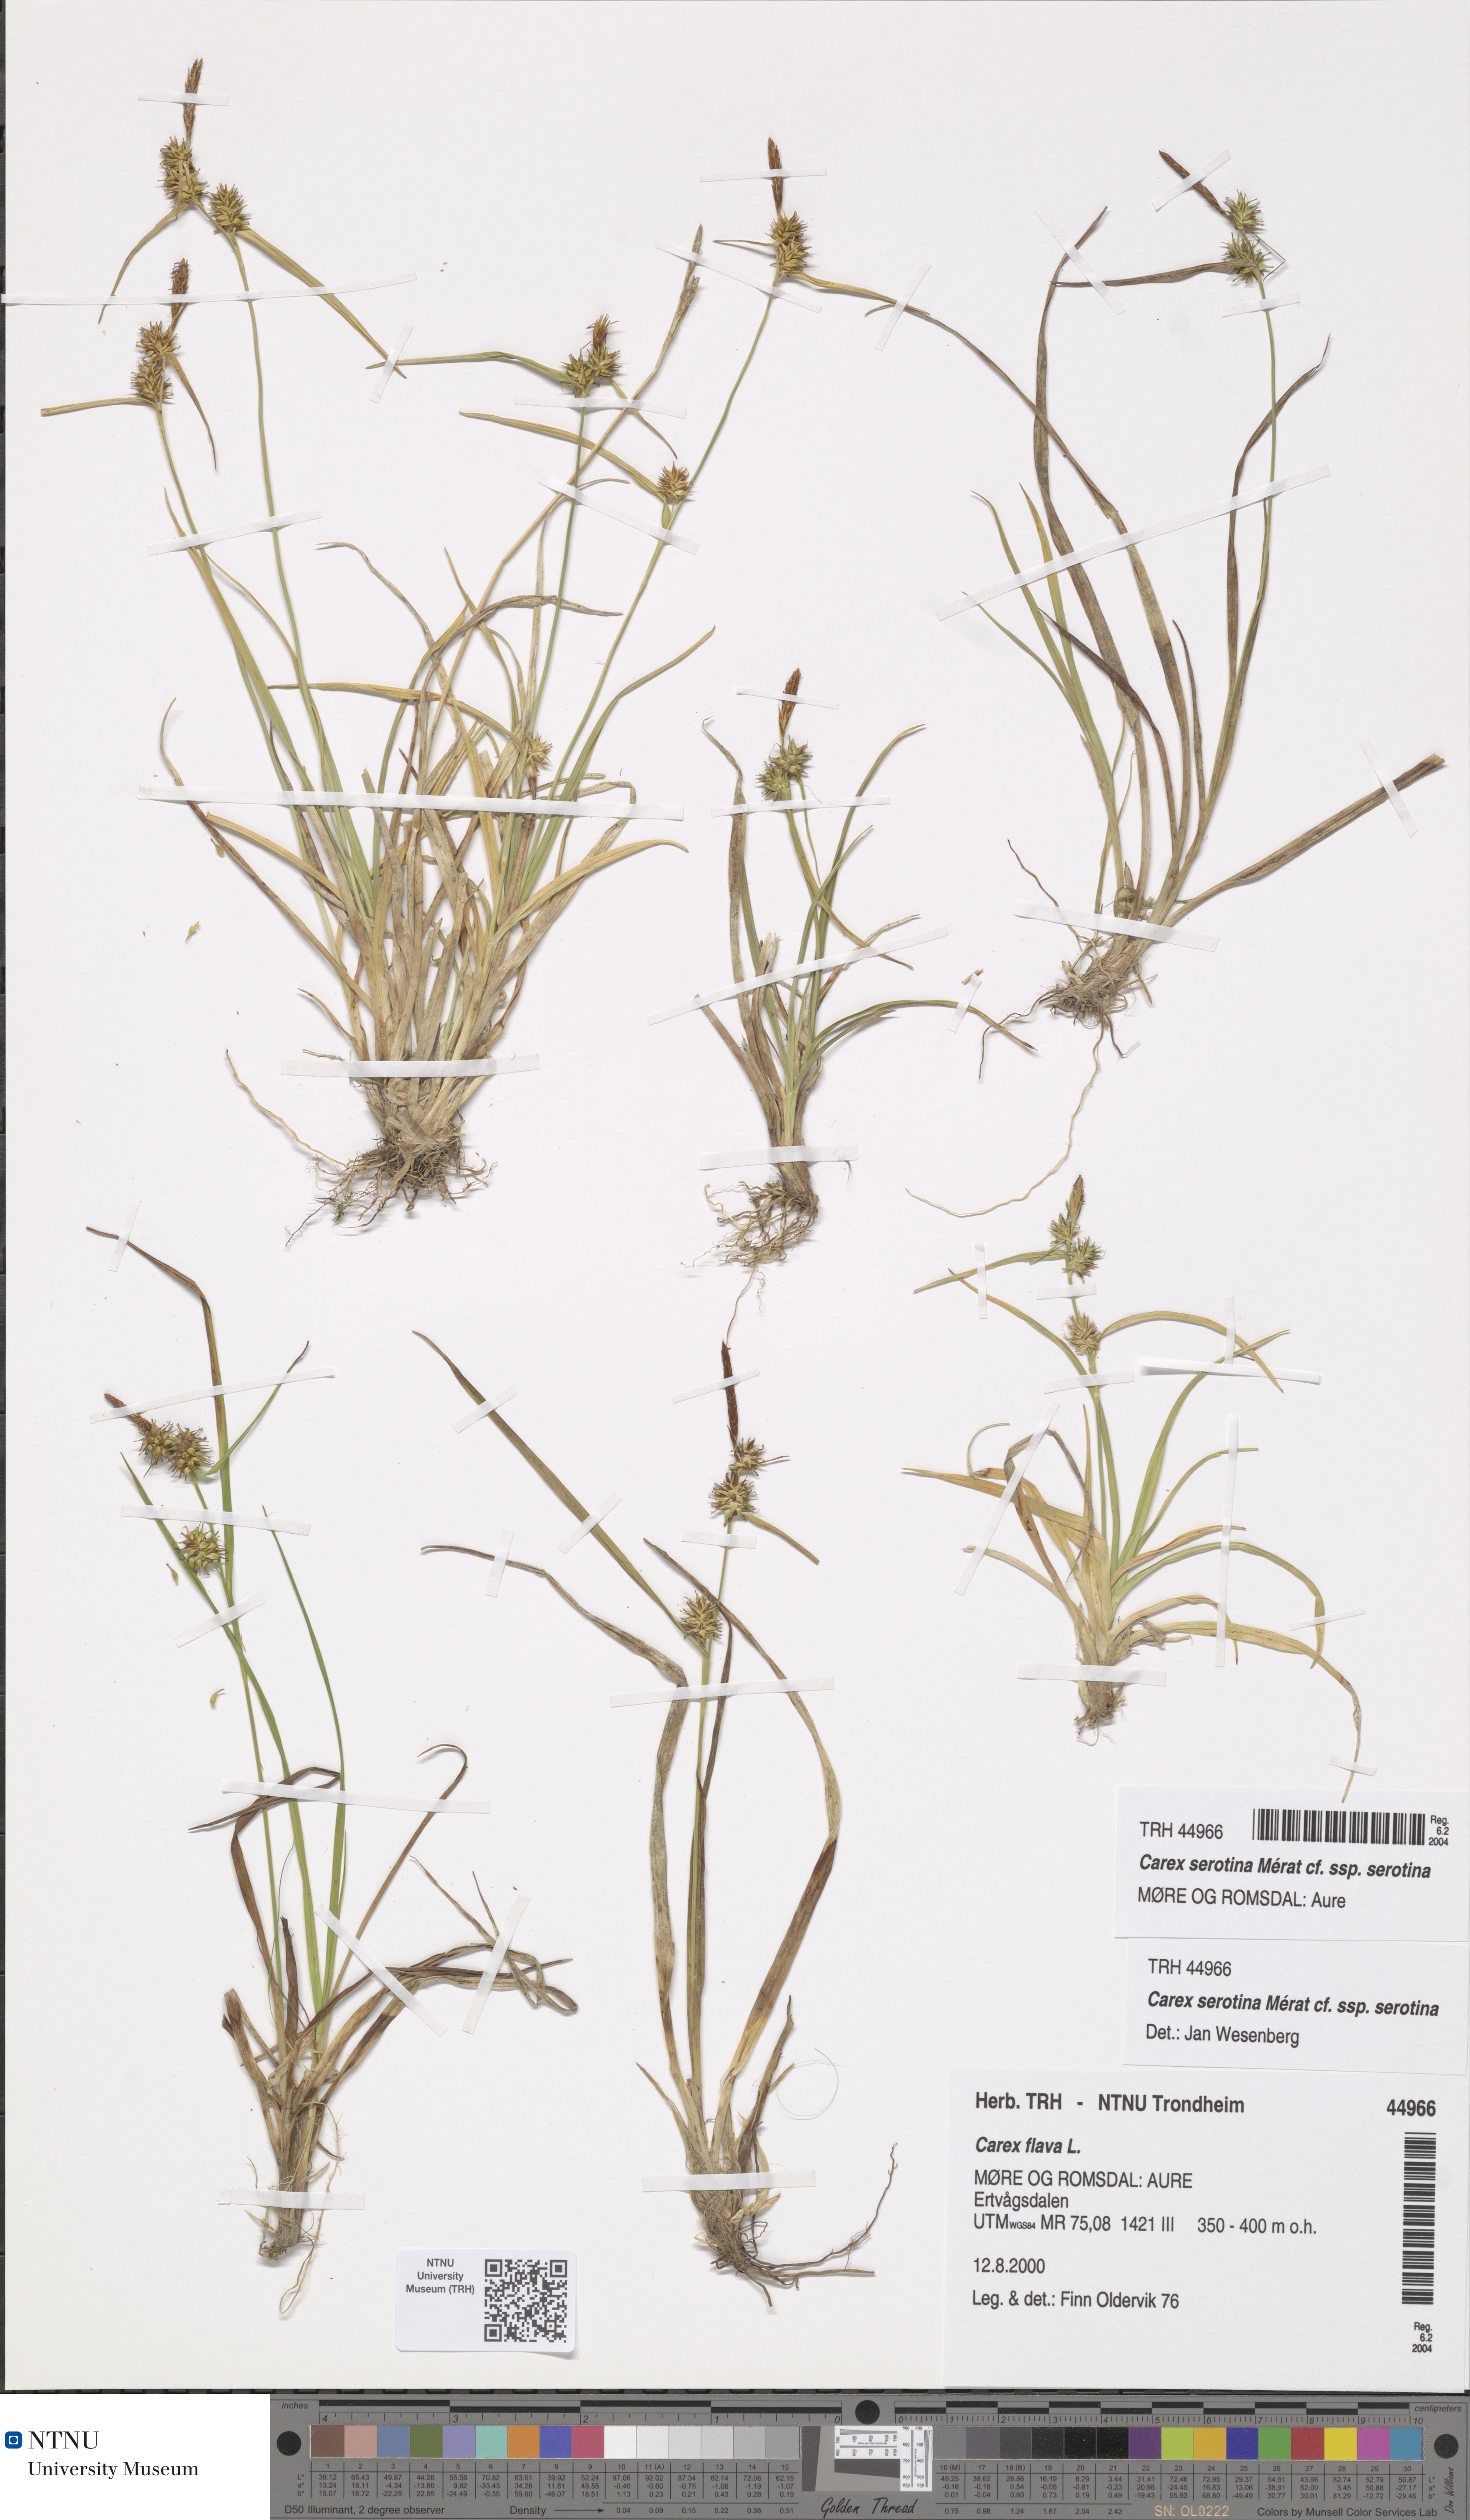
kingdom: Plantae
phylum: Tracheophyta
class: Liliopsida
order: Poales
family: Cyperaceae
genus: Carex
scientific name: Carex oederi
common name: Common & small-fruited yellow-sedge
